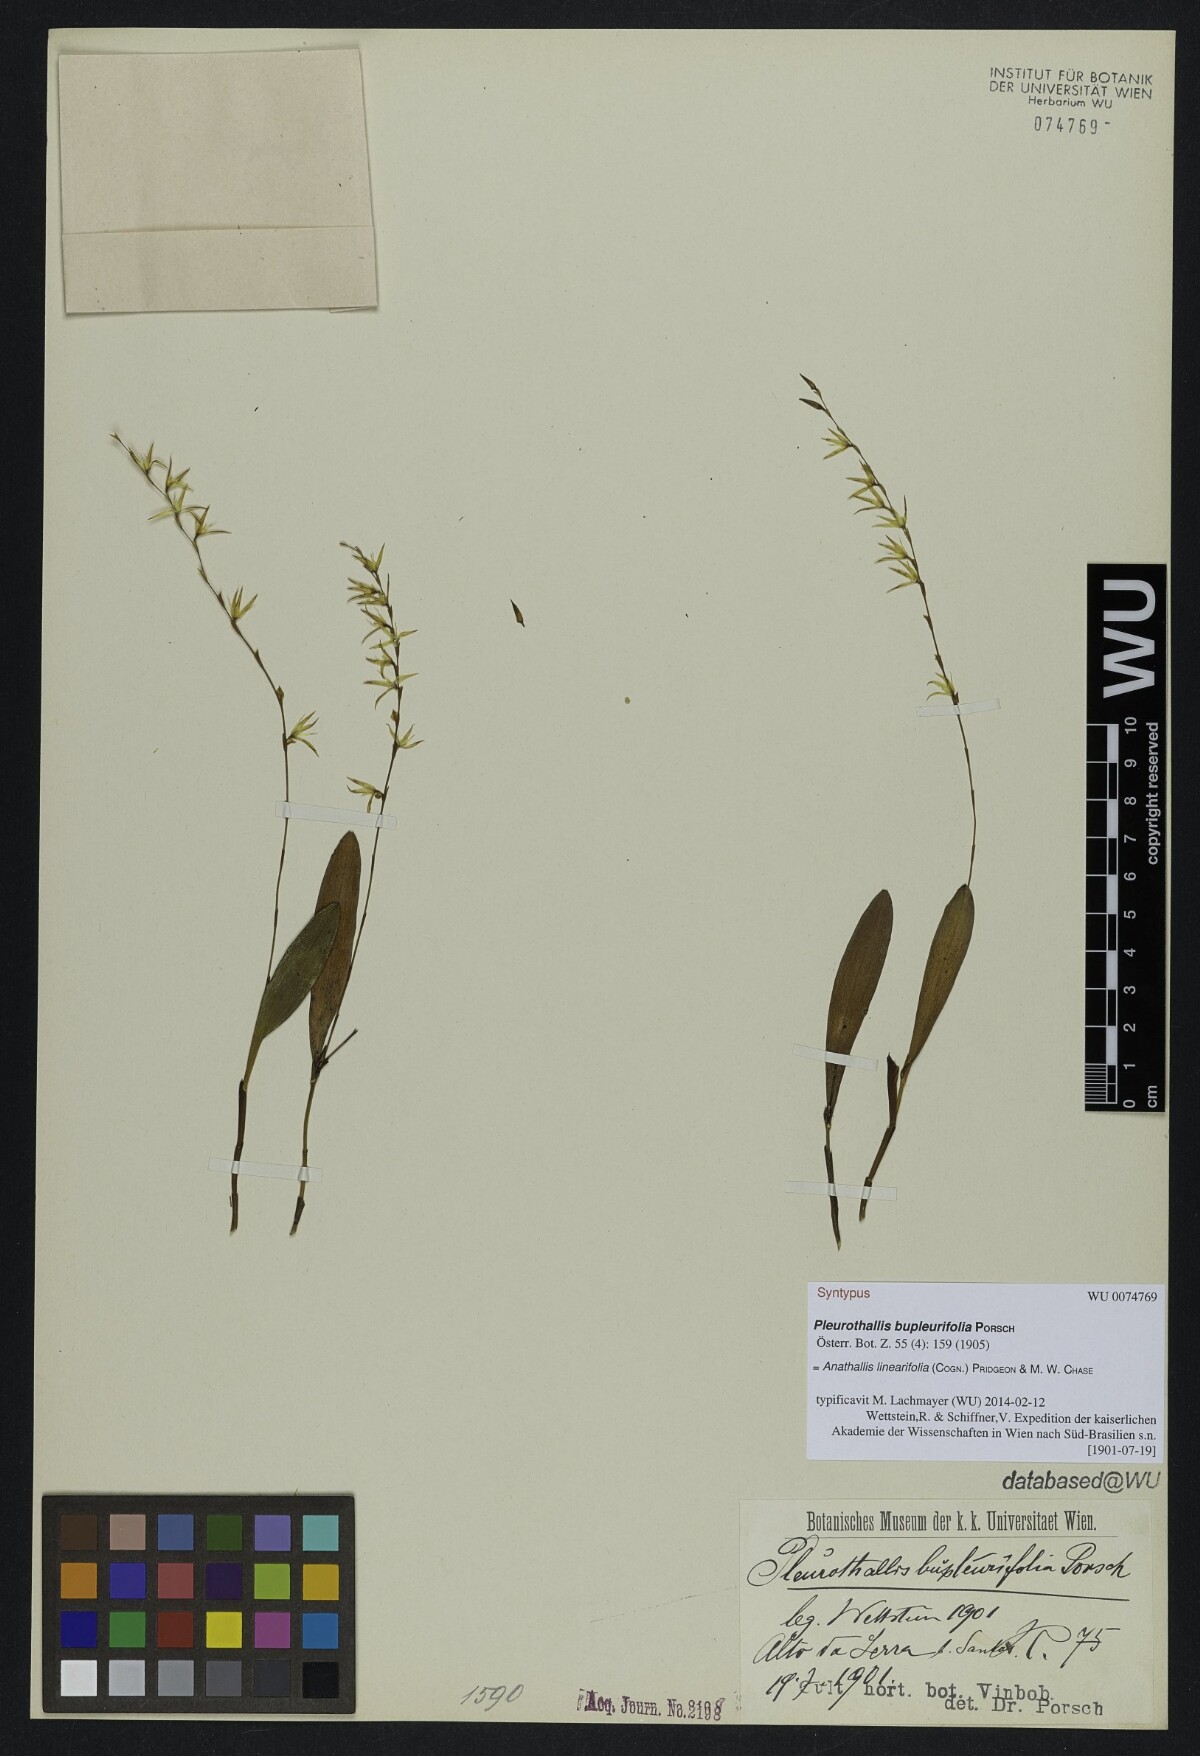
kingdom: Plantae
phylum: Tracheophyta
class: Liliopsida
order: Asparagales
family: Orchidaceae
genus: Anathallis
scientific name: Anathallis linearifolia
